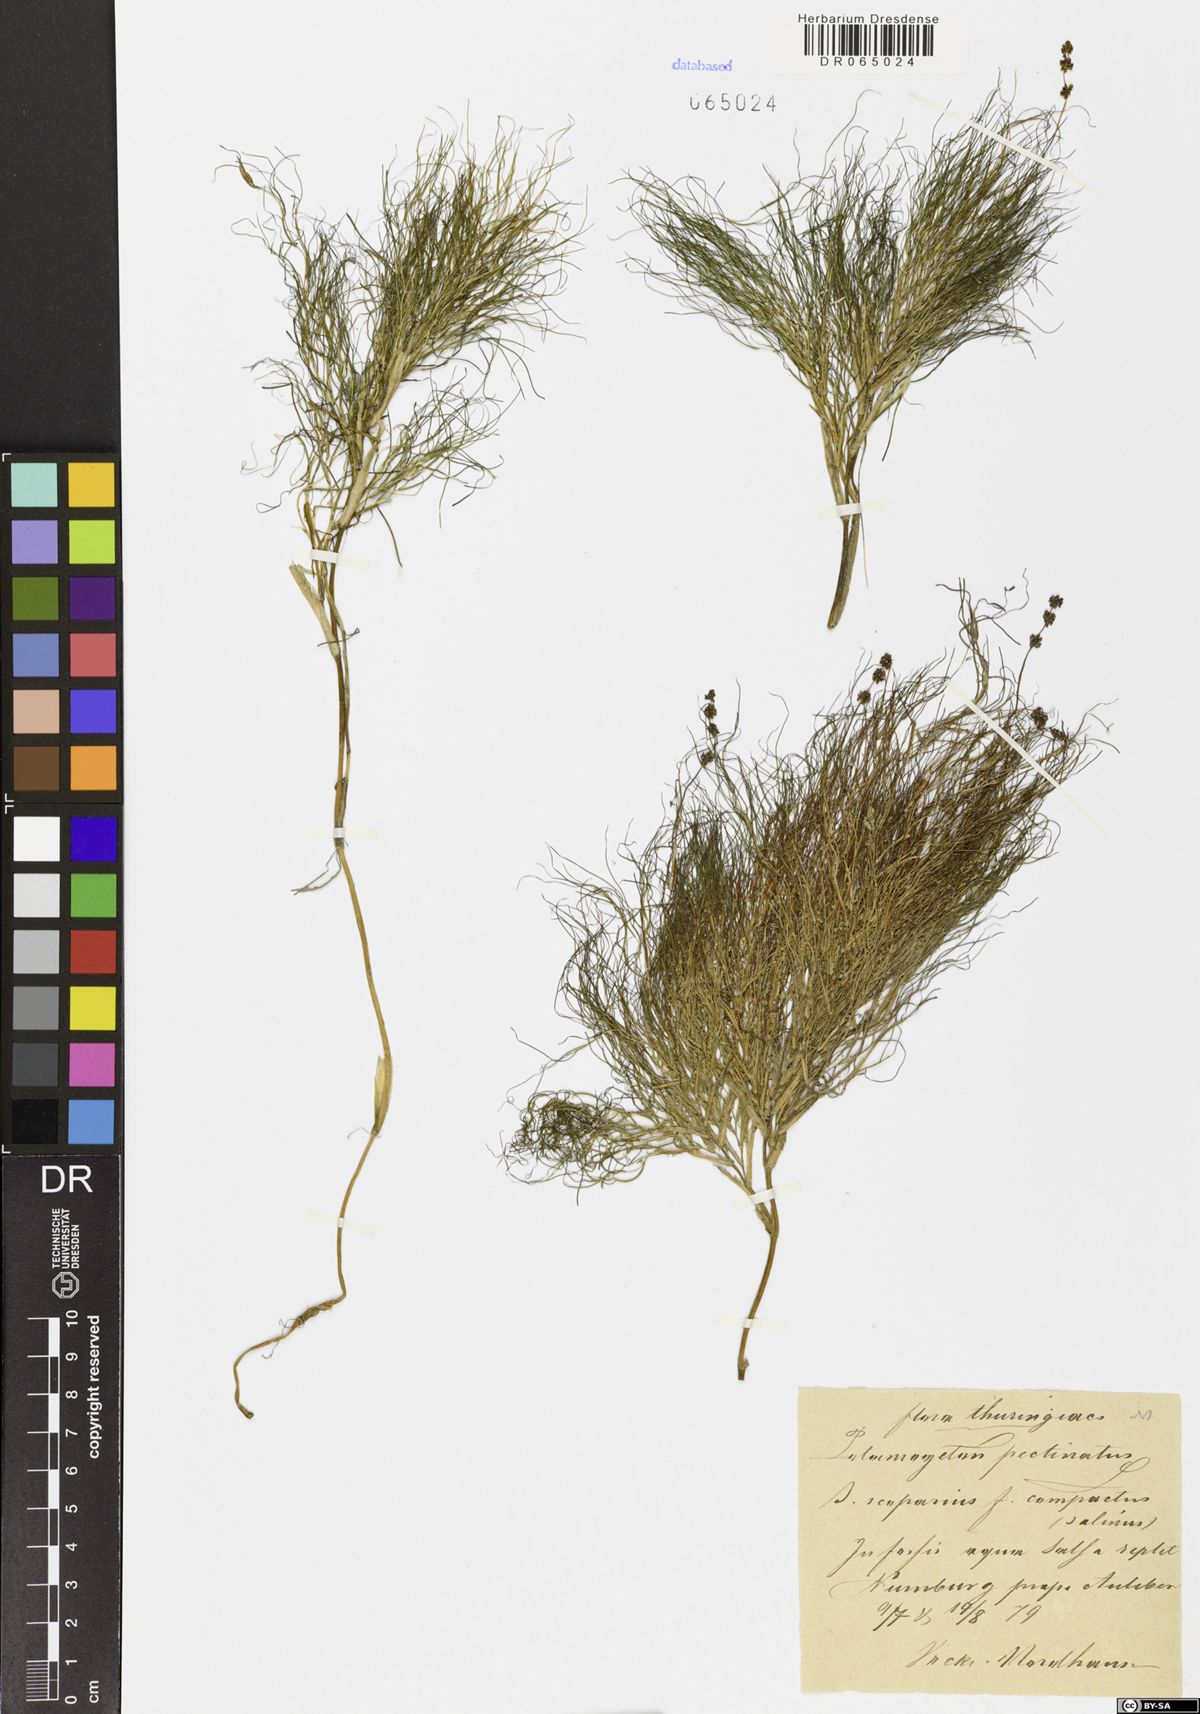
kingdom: Plantae
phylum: Tracheophyta
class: Liliopsida
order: Alismatales
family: Potamogetonaceae
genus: Stuckenia
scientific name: Stuckenia pectinata
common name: Sago pondweed
